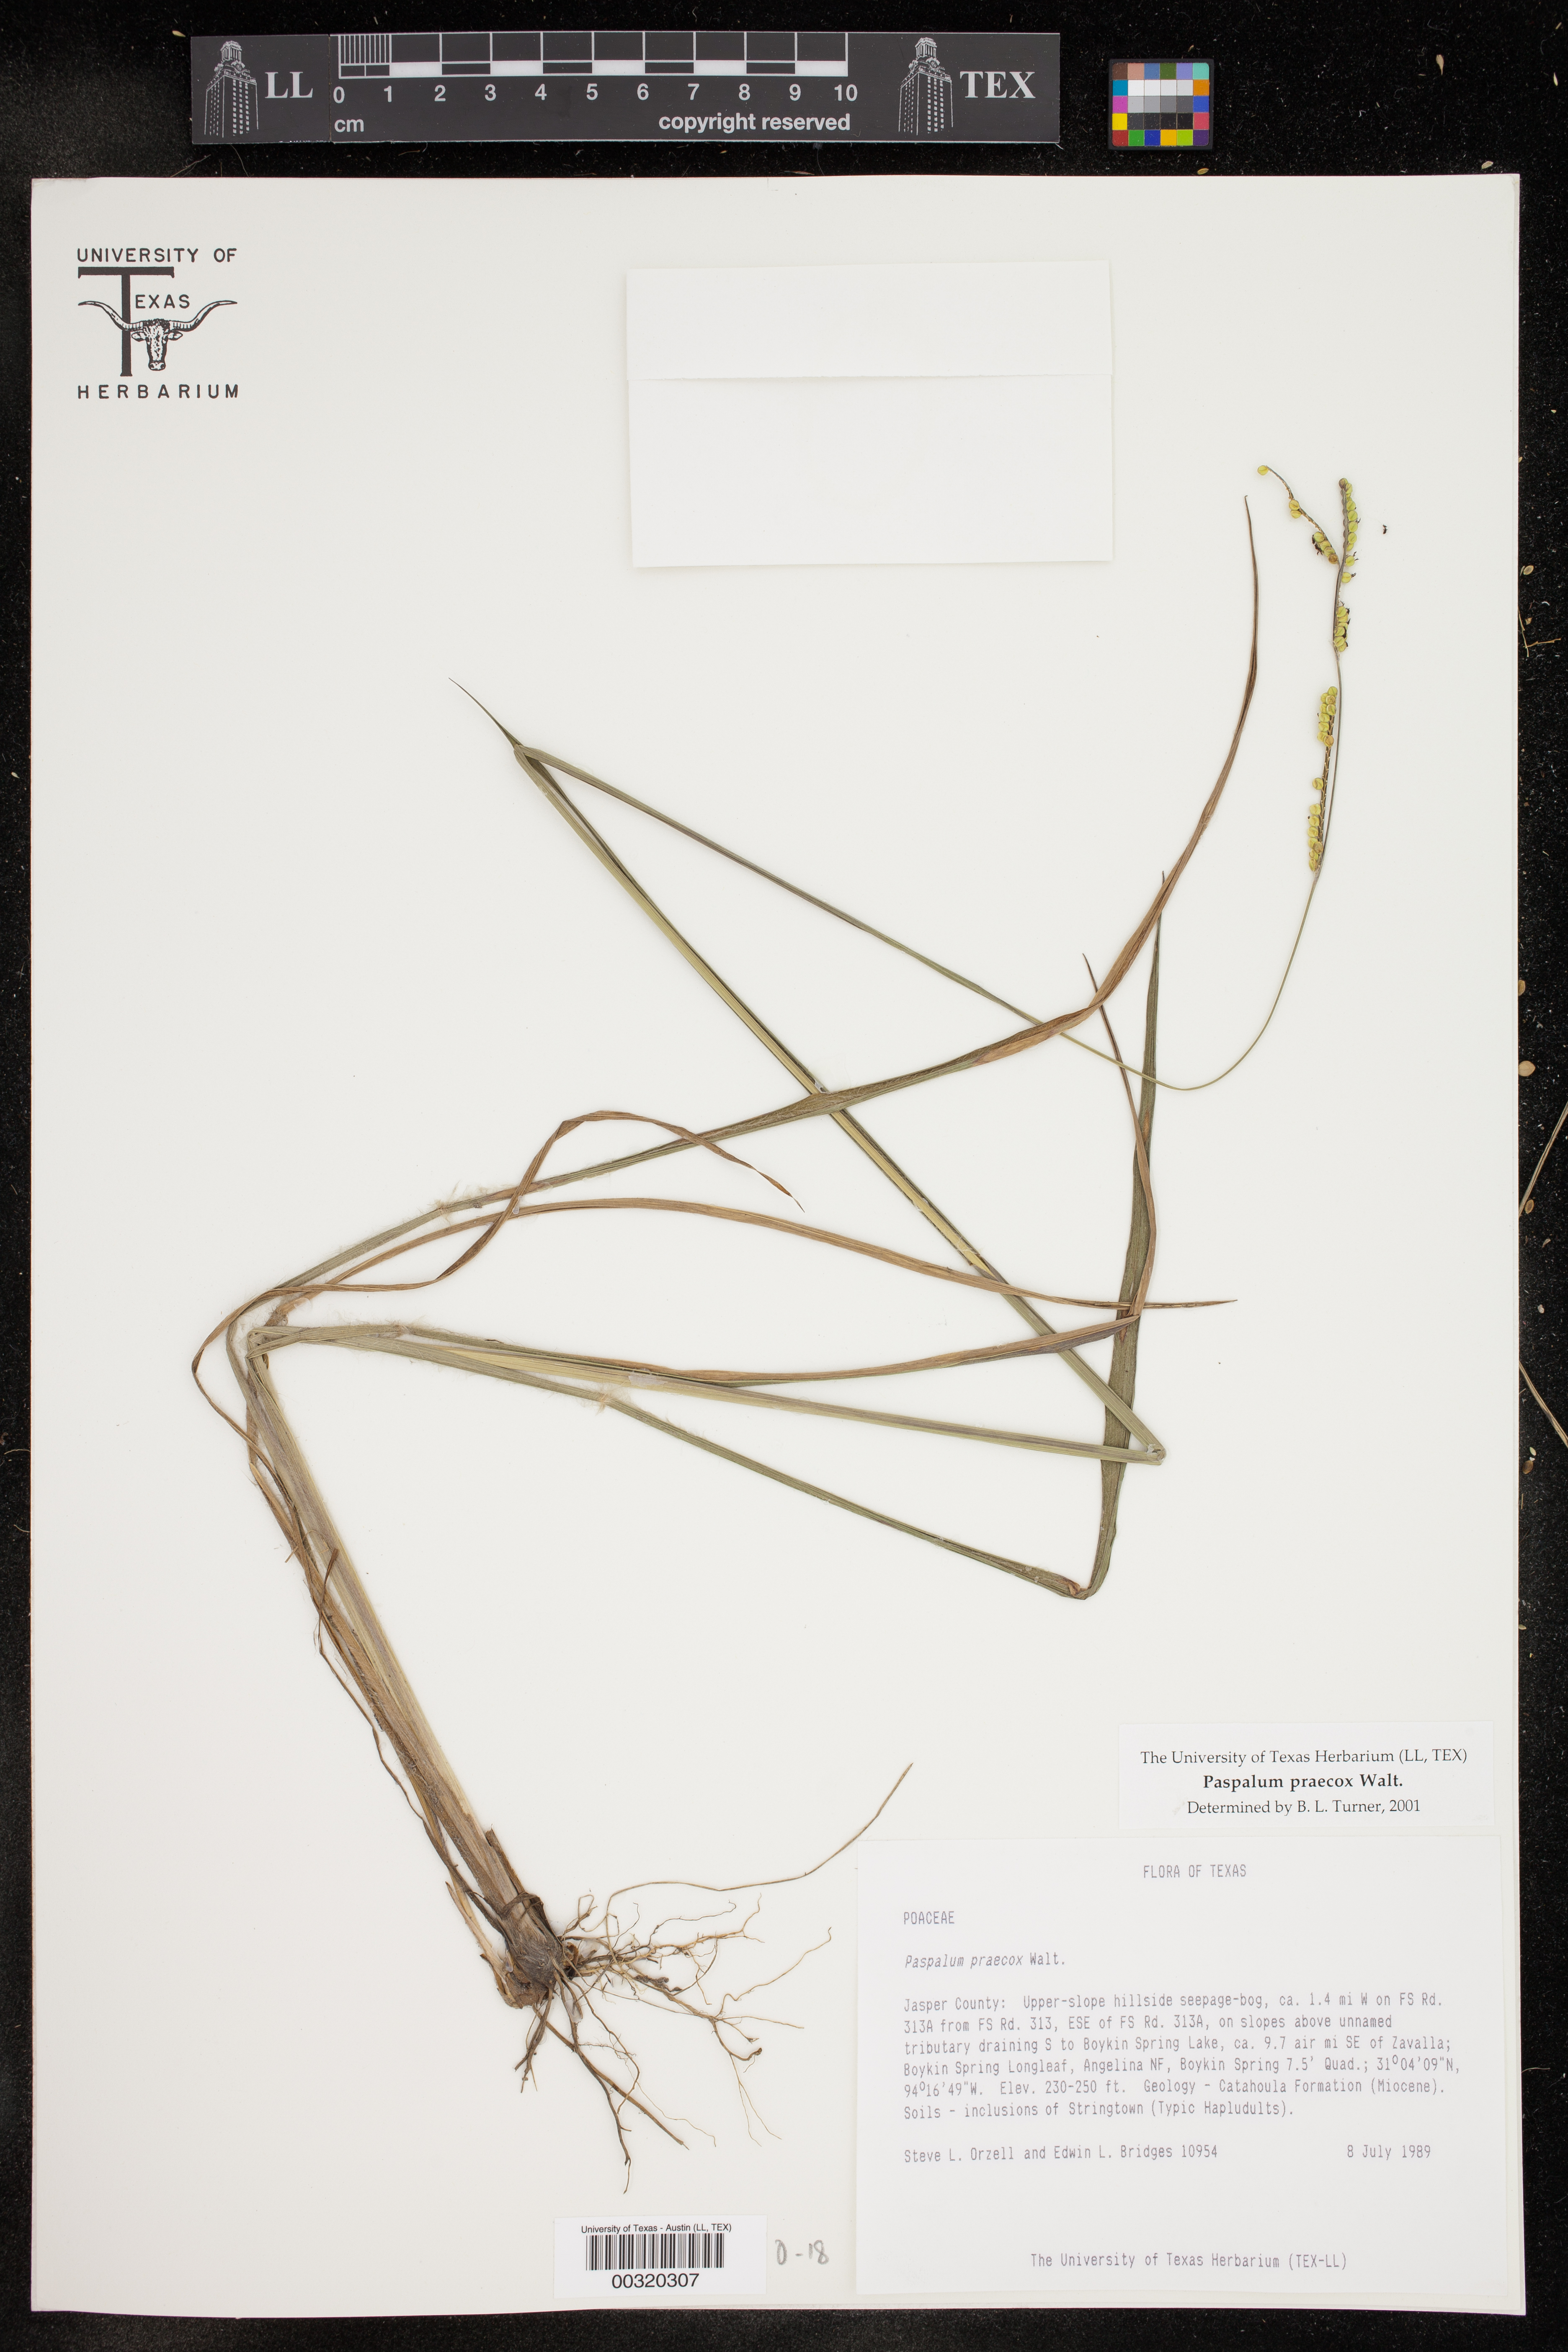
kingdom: Plantae
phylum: Tracheophyta
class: Liliopsida
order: Poales
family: Poaceae
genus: Paspalum
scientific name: Paspalum praecox
